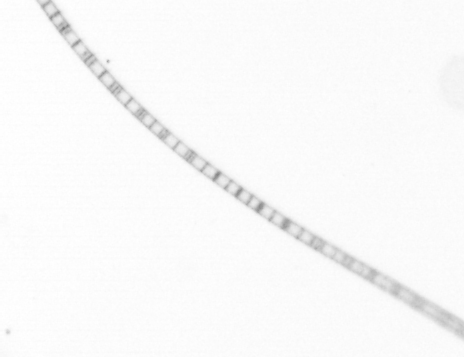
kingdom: Chromista
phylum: Ochrophyta
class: Bacillariophyceae
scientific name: Bacillariophyceae
